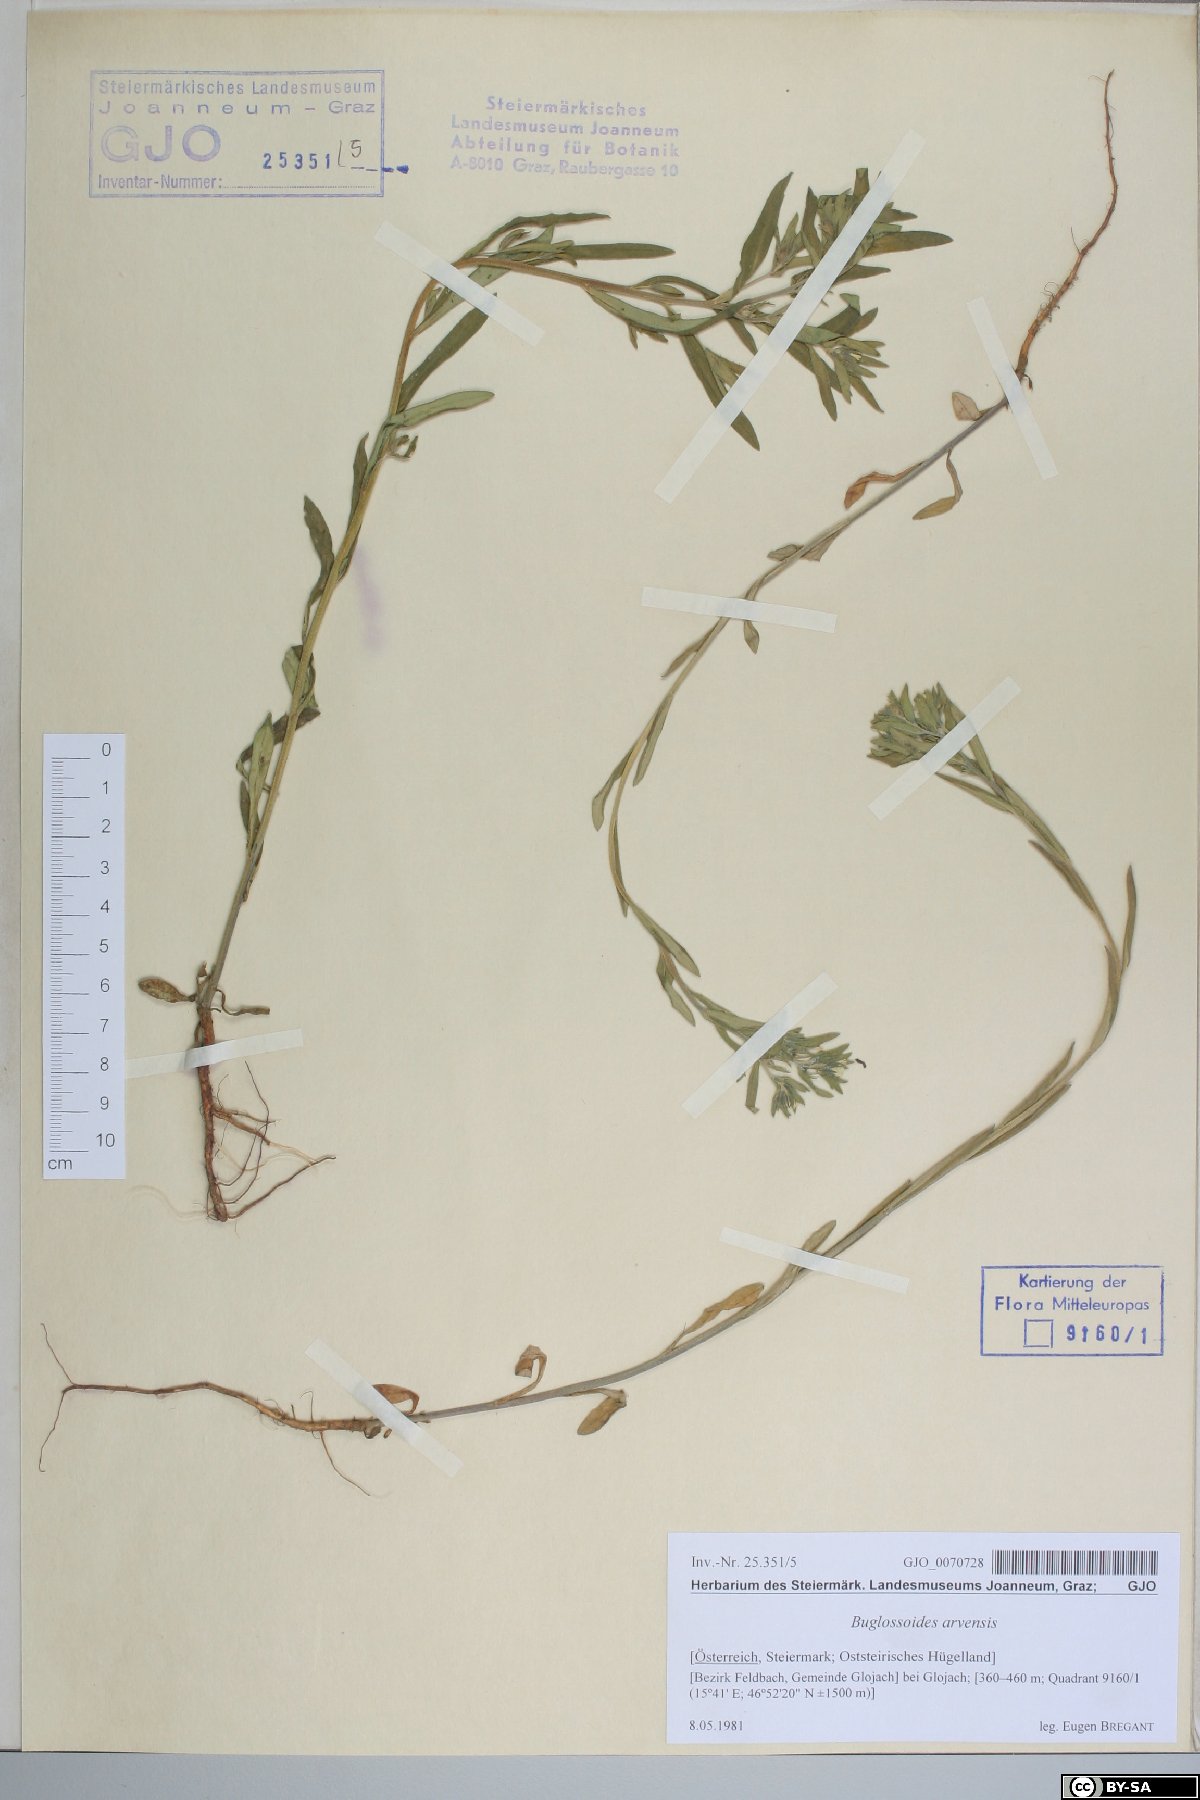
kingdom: Plantae
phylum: Tracheophyta
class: Magnoliopsida
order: Boraginales
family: Boraginaceae
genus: Buglossoides
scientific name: Buglossoides arvensis
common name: Corn gromwell
